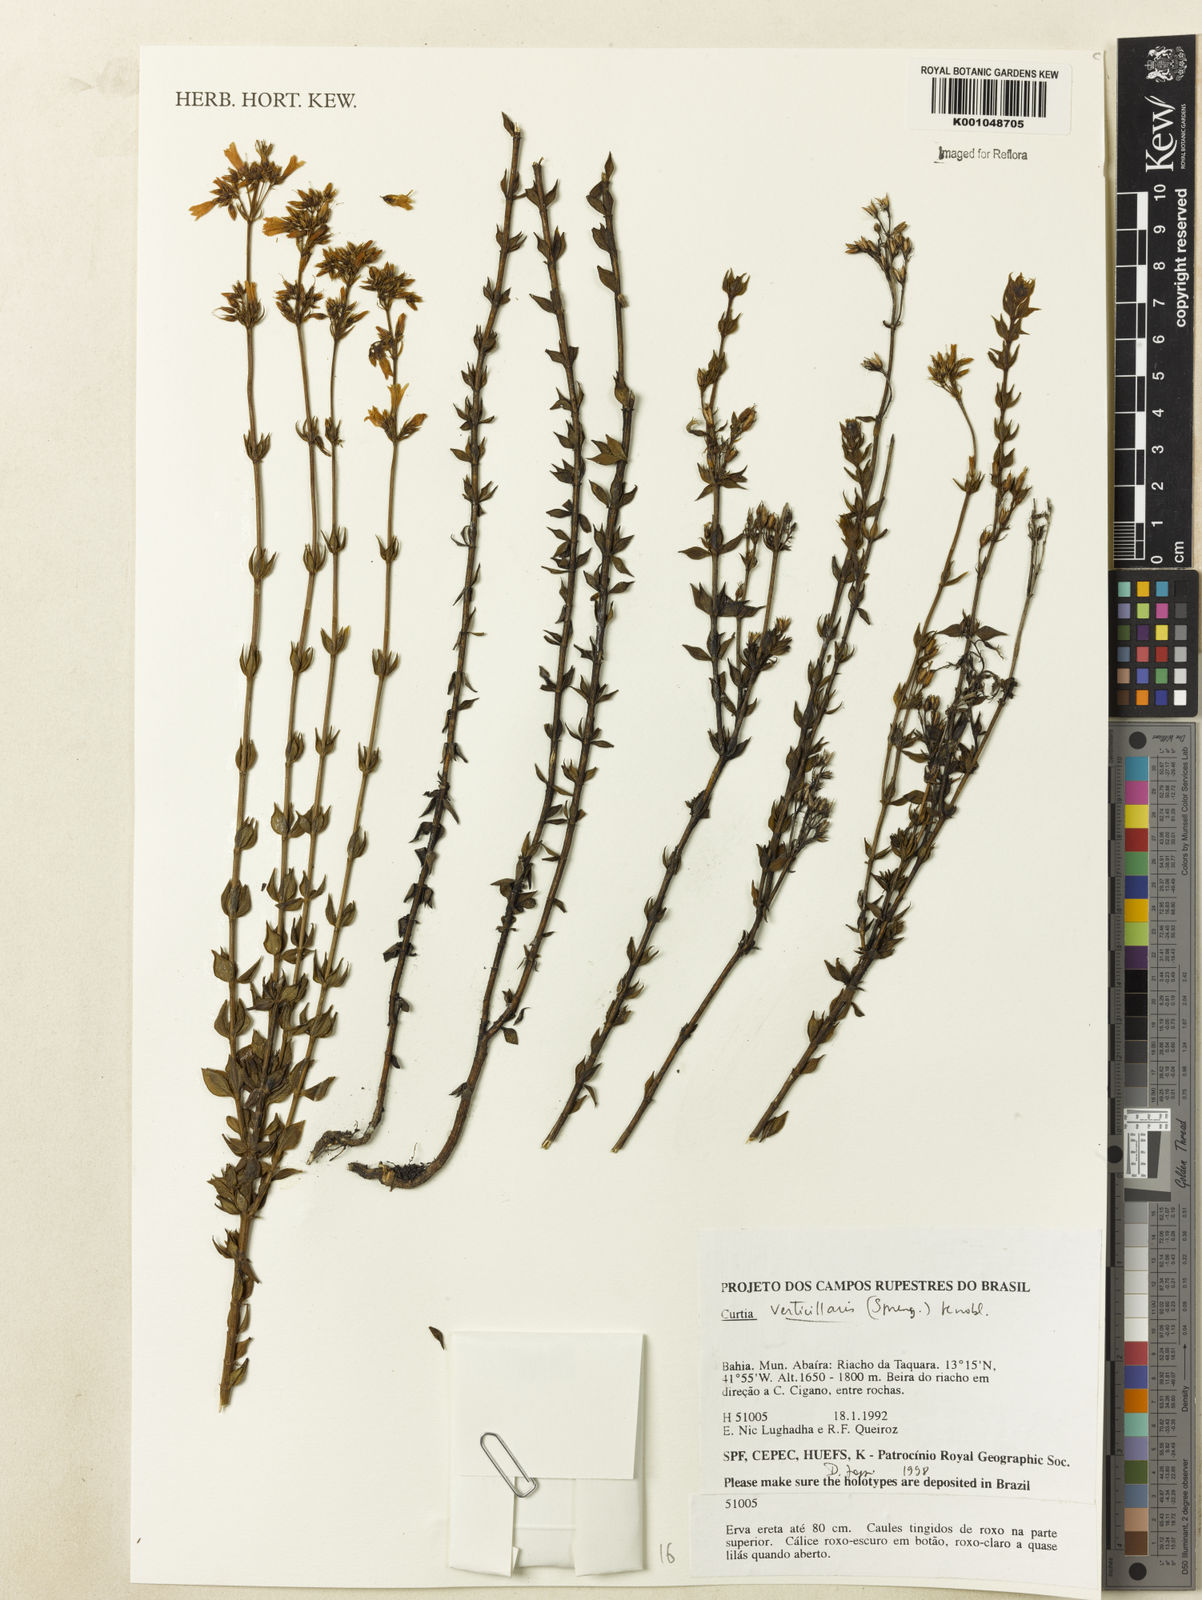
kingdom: Plantae
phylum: Tracheophyta
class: Magnoliopsida
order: Gentianales
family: Gentianaceae
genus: Curtia
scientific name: Curtia verticillaris
